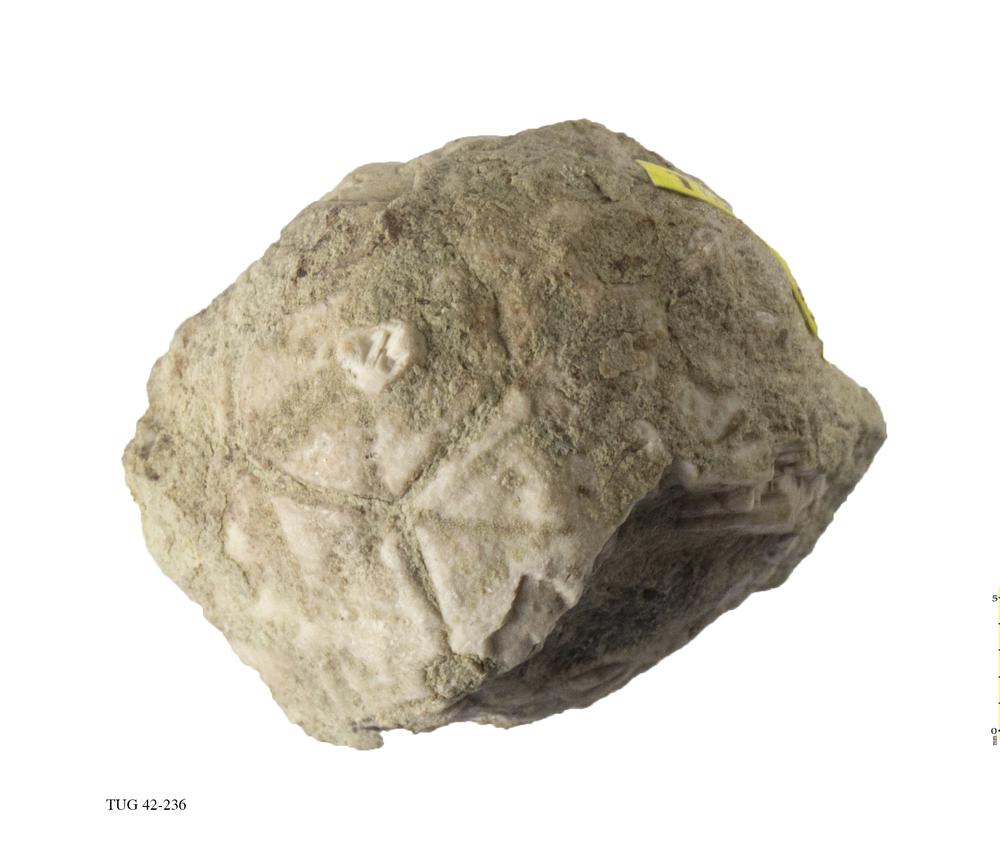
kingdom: Animalia
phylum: Echinodermata
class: Crinoidea
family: Hemicosmitidae
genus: Hemicosmites
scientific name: Hemicosmites pyriformis
